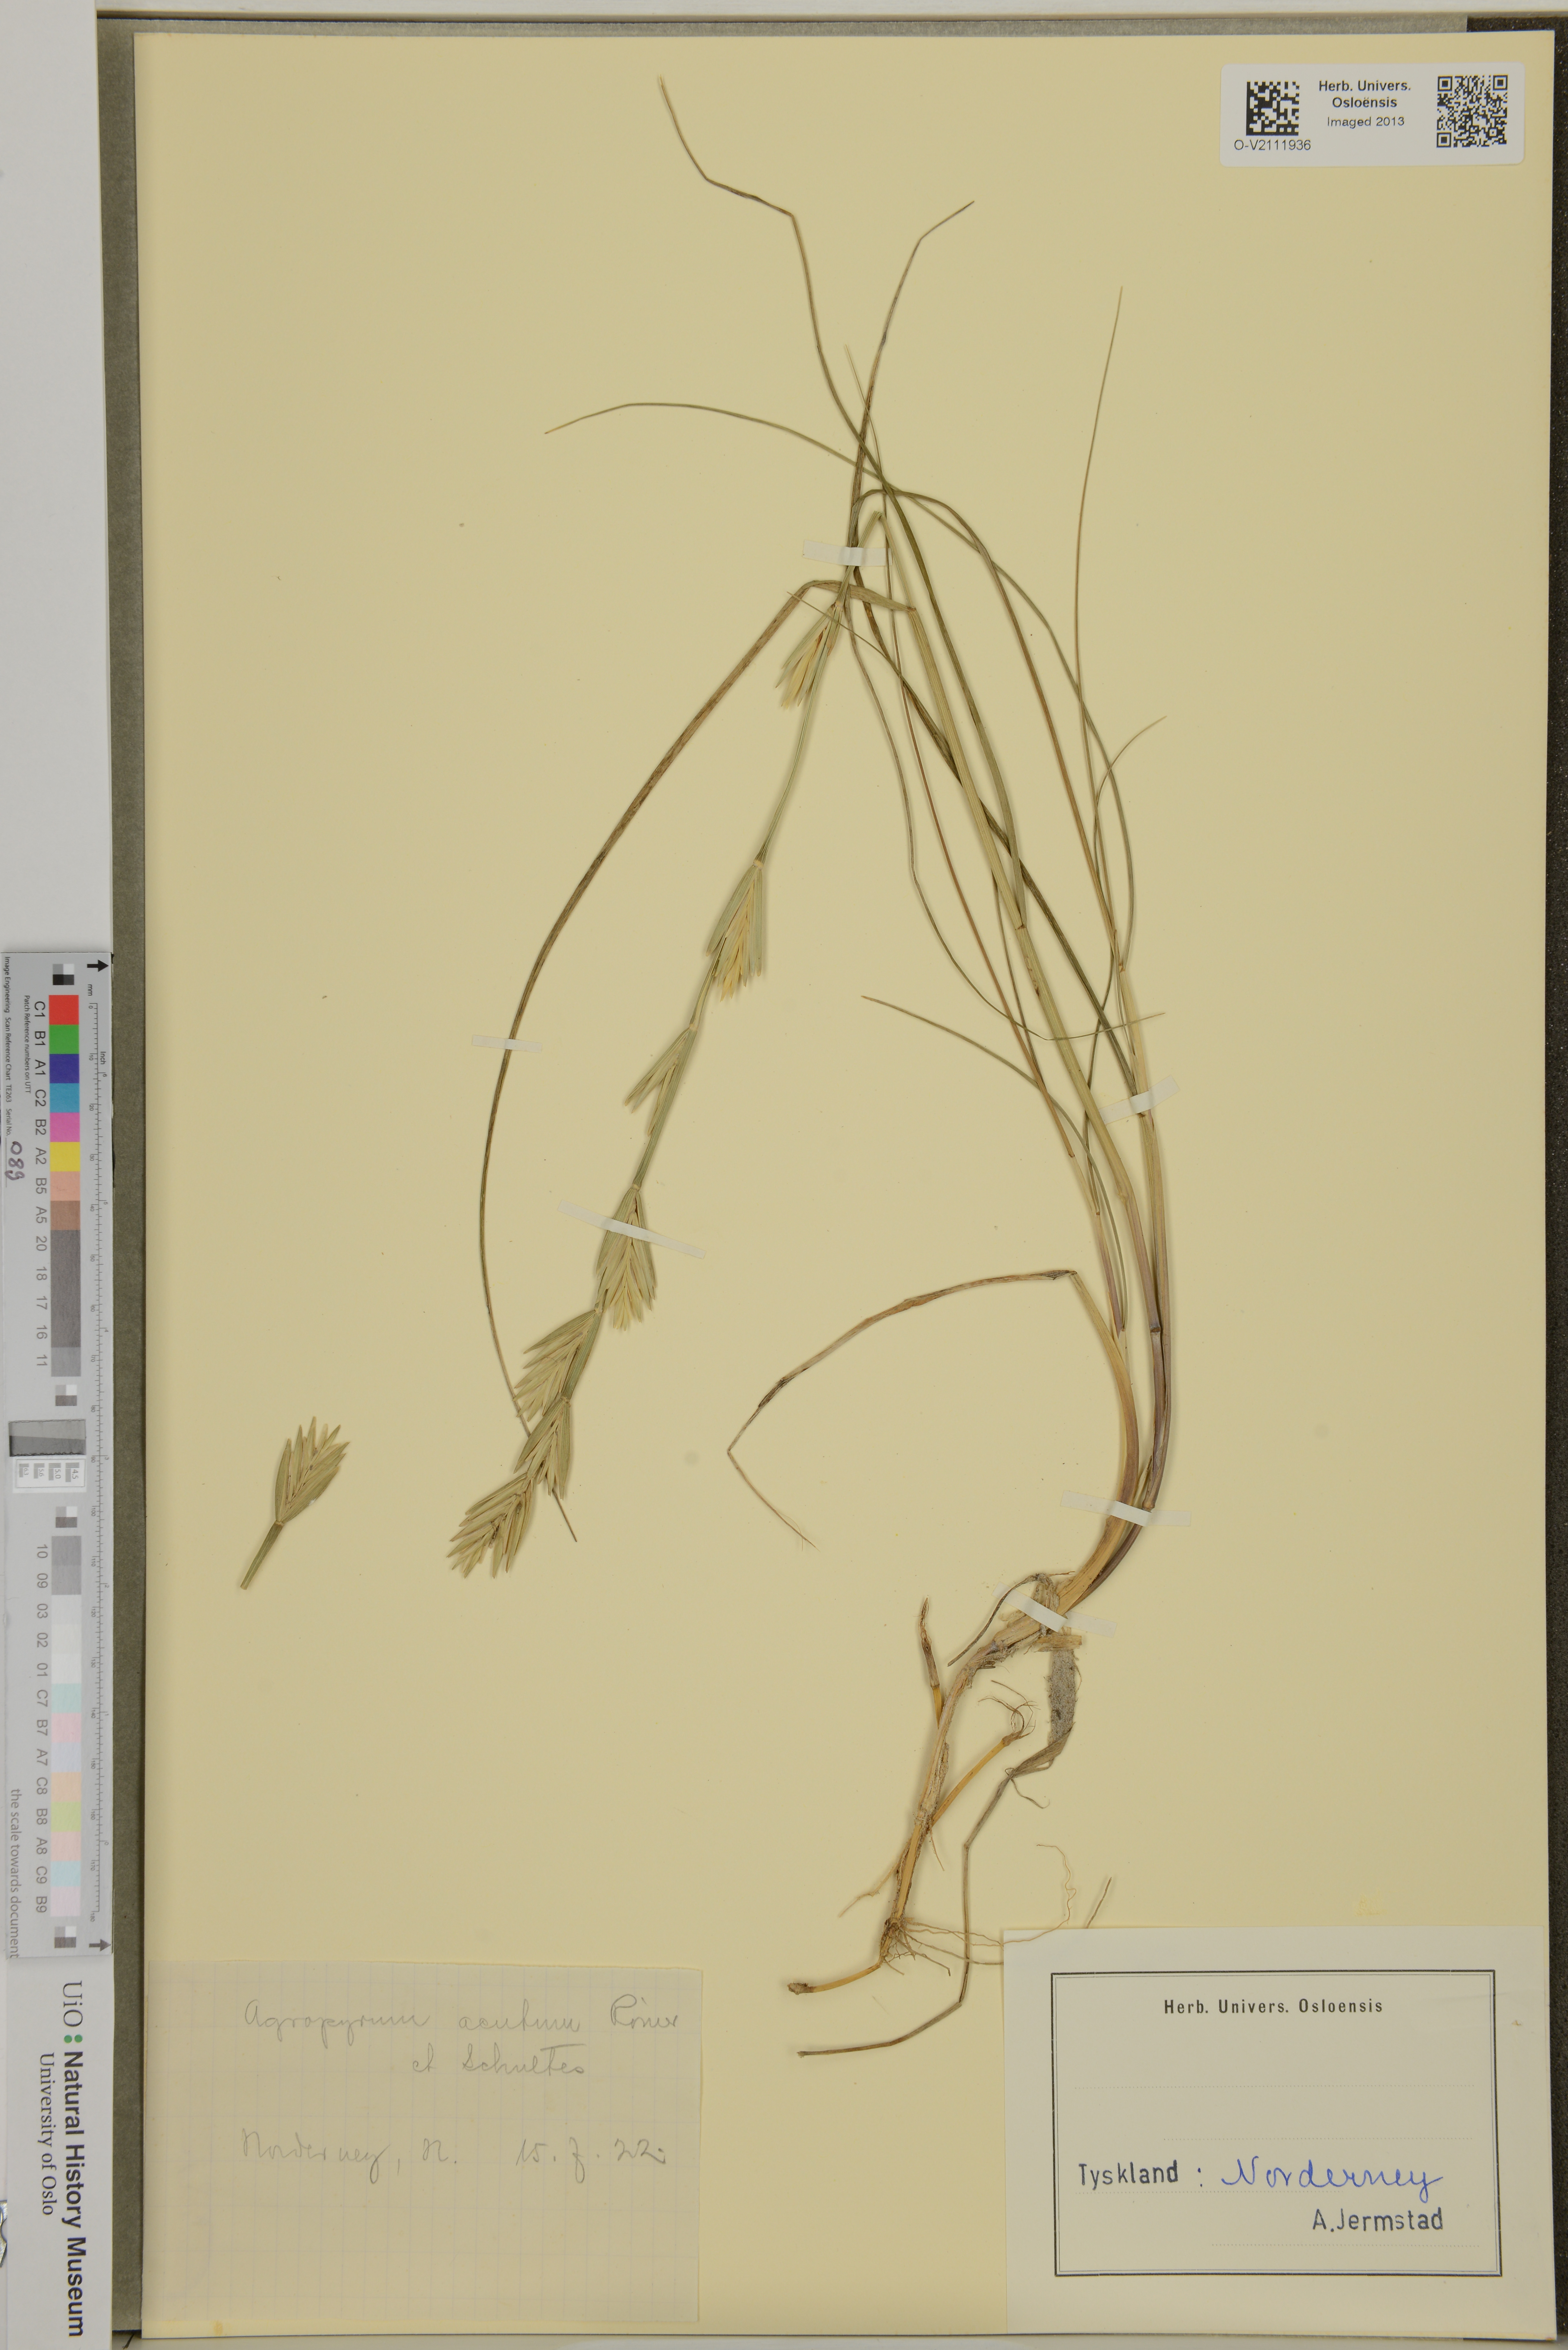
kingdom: Plantae
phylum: Tracheophyta
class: Liliopsida
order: Poales
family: Poaceae
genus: Agropyron
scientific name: Agropyron acutum
